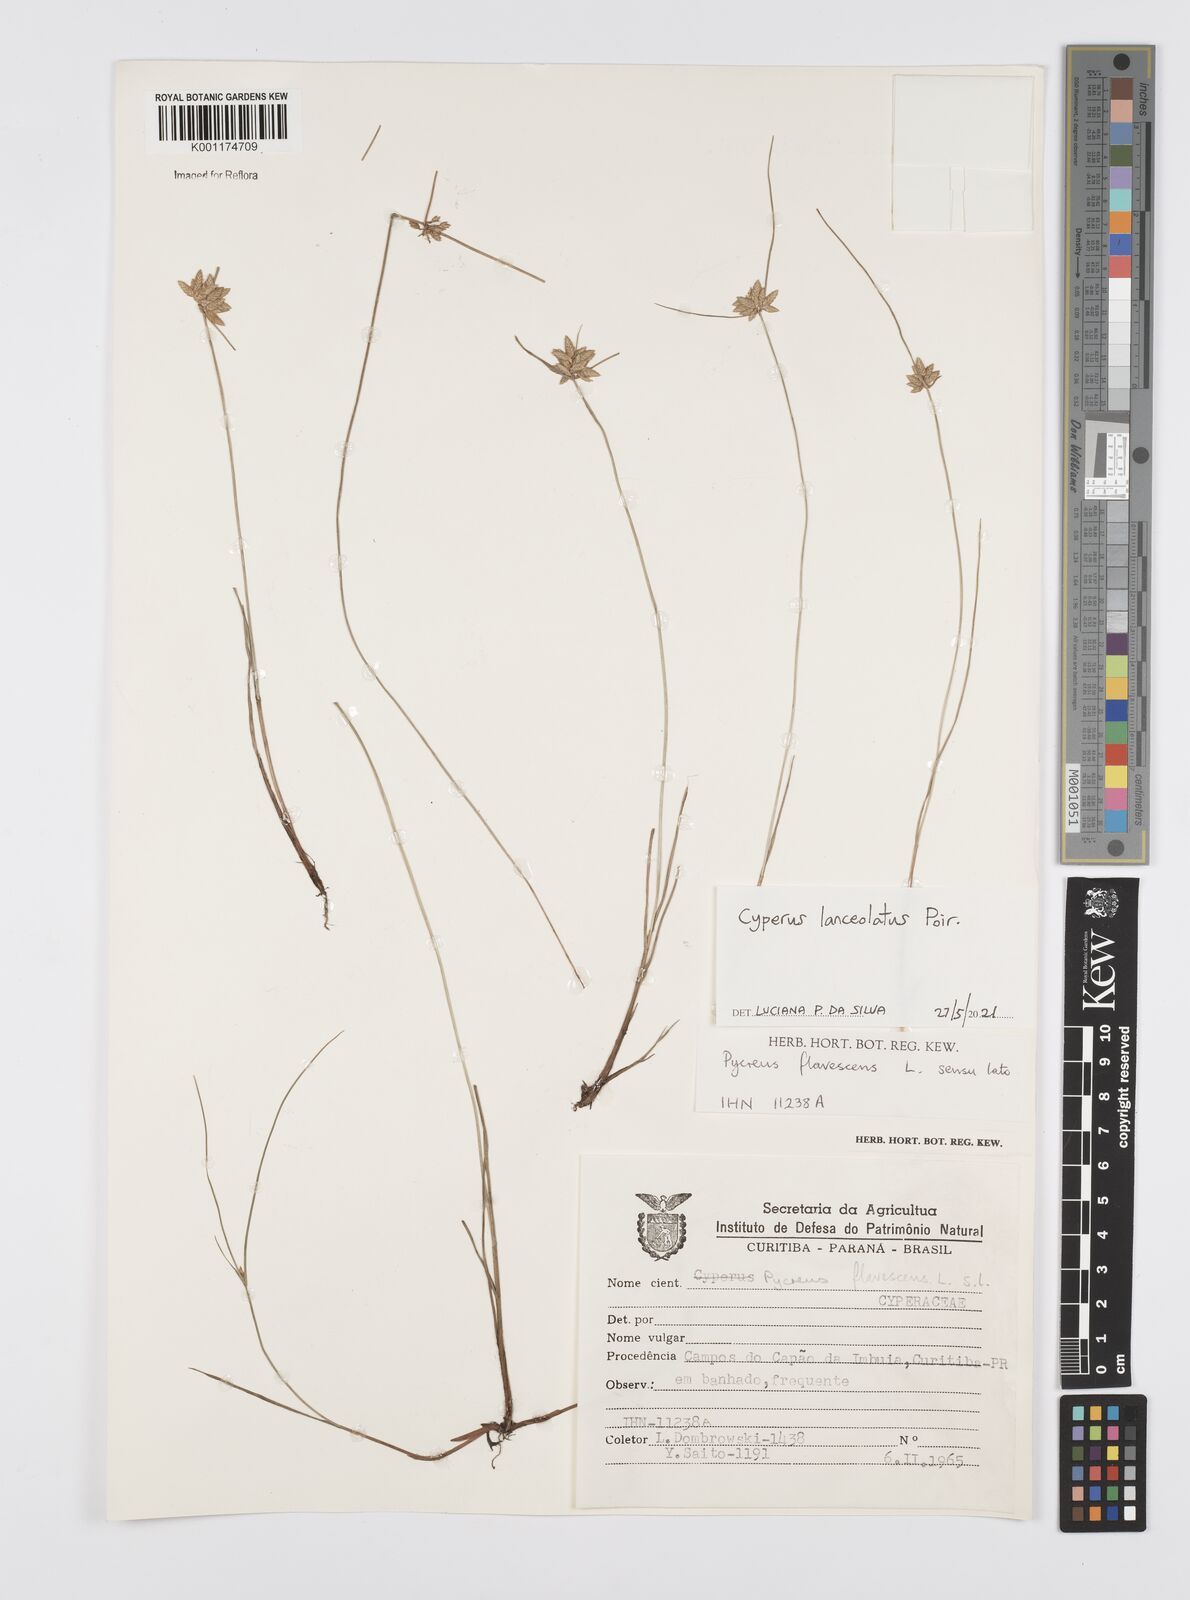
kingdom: Plantae
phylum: Tracheophyta
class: Liliopsida
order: Poales
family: Cyperaceae
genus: Cyperus
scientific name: Cyperus lanceolatus
